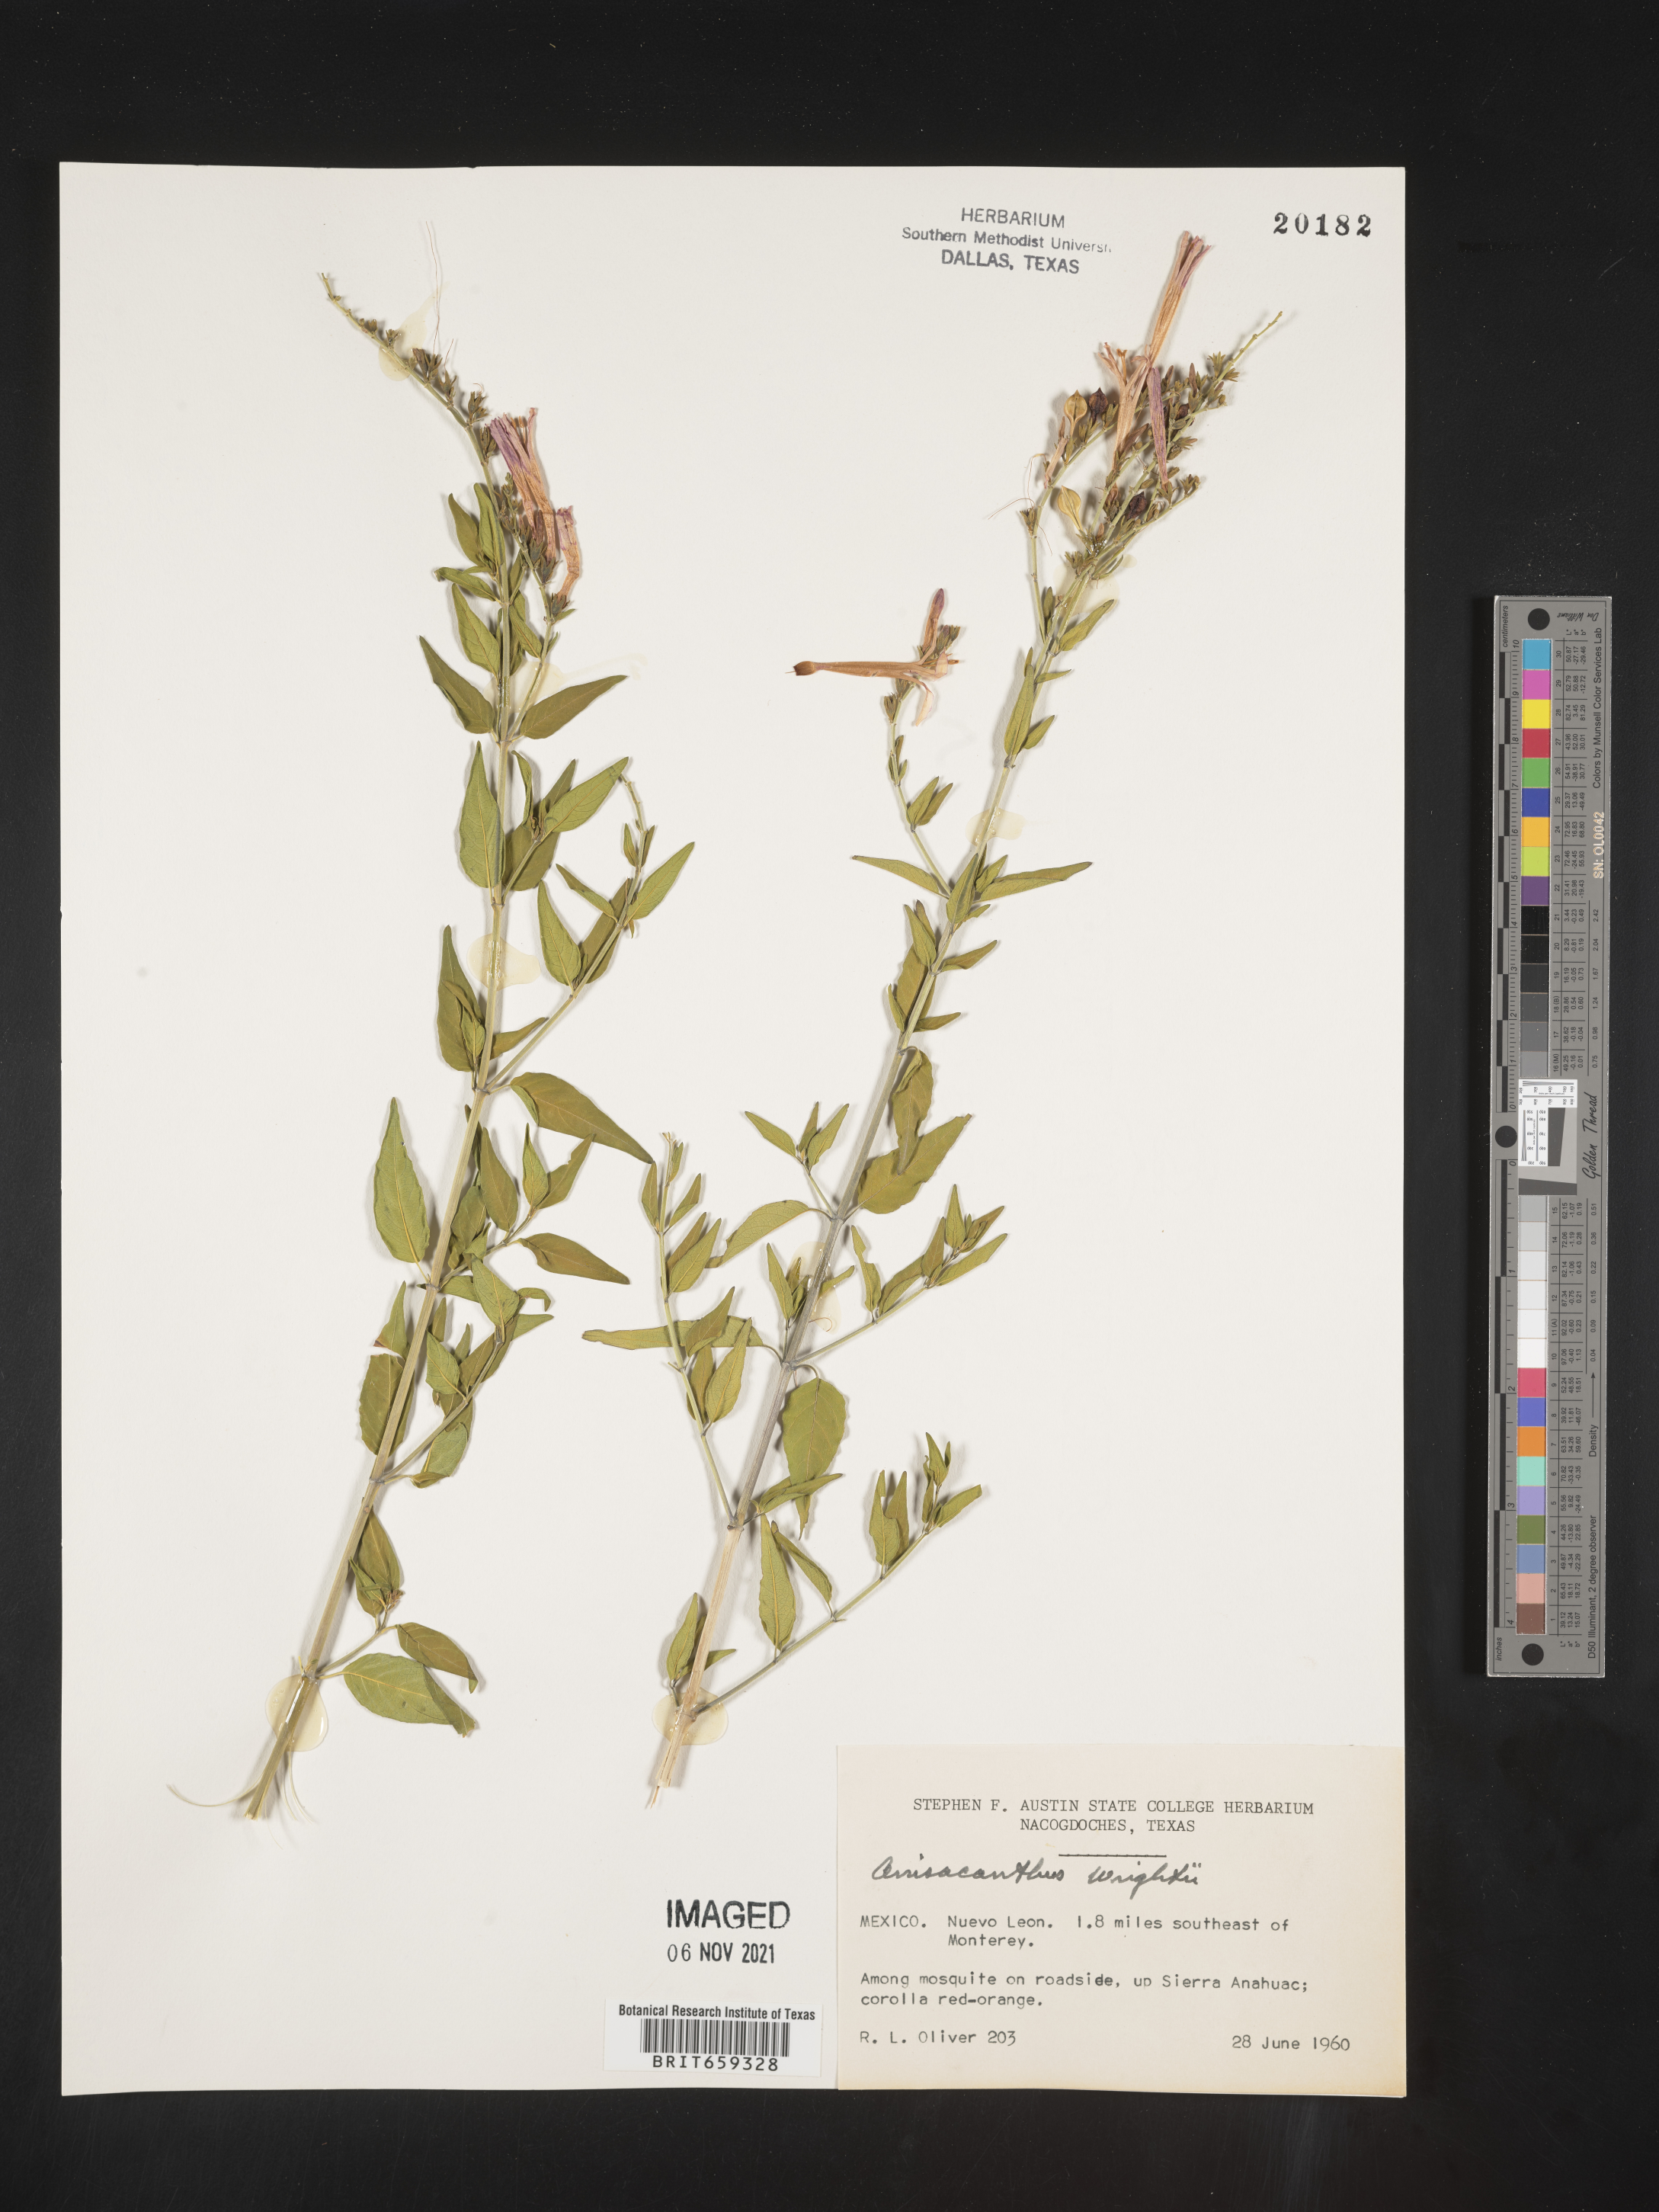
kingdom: Plantae
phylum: Tracheophyta
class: Magnoliopsida
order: Lamiales
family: Acanthaceae
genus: Anisacanthus
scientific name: Anisacanthus
